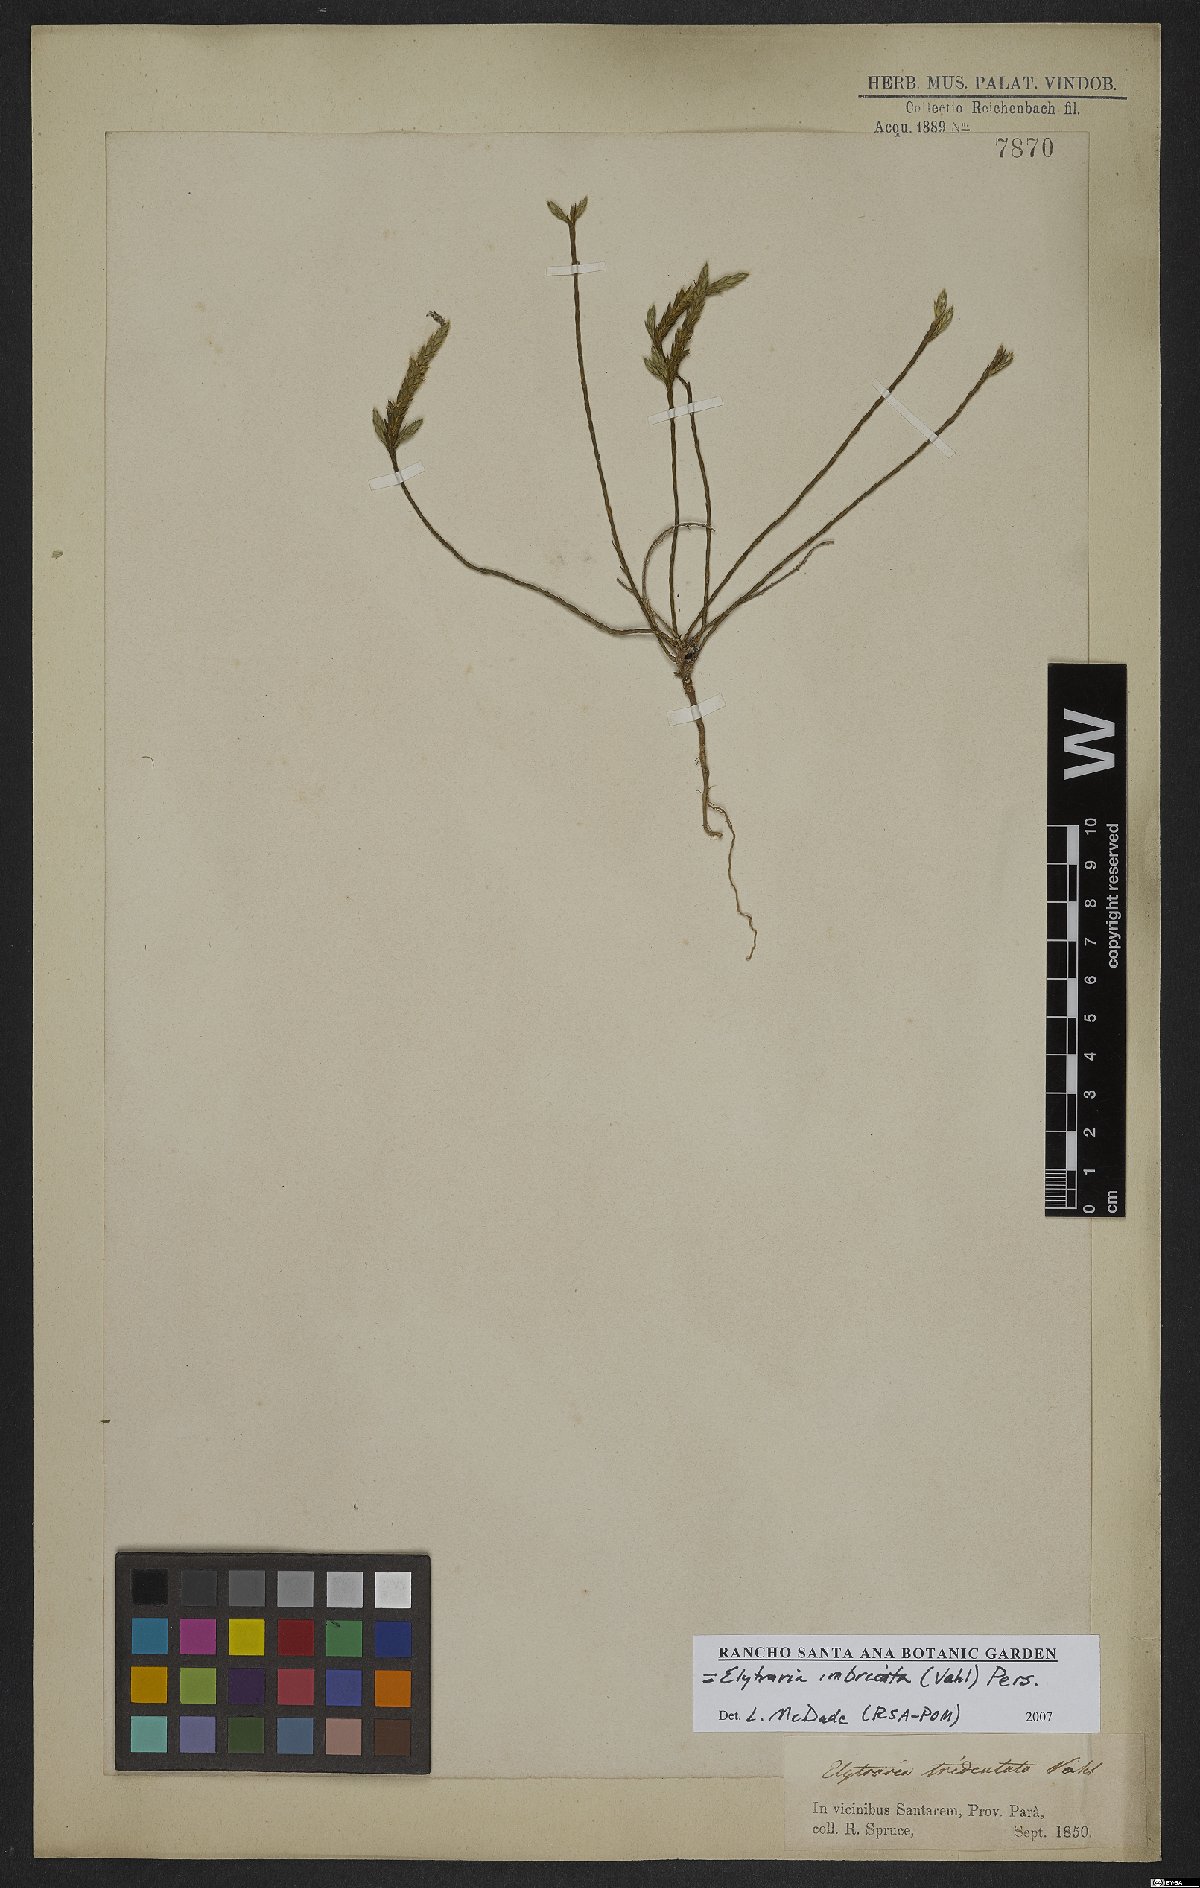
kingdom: Plantae
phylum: Tracheophyta
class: Magnoliopsida
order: Lamiales
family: Acanthaceae
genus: Elytraria
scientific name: Elytraria imbricata
